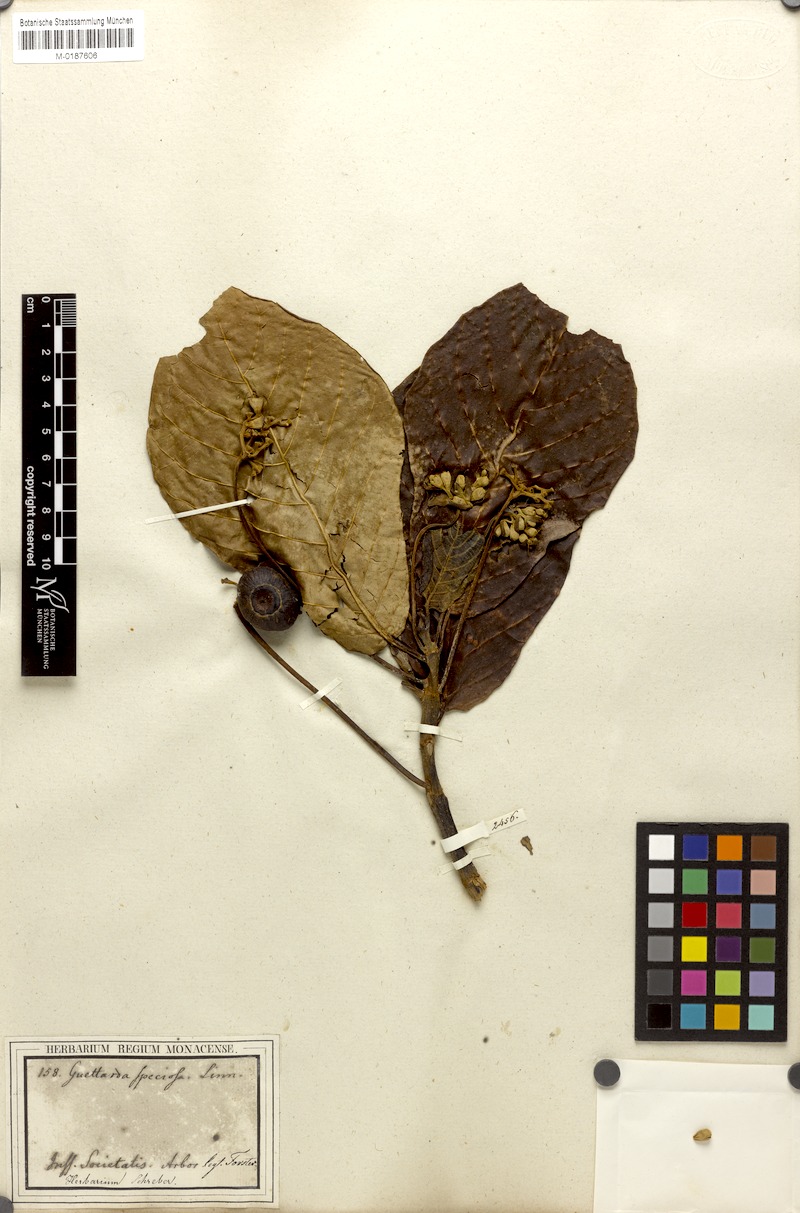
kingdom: Plantae
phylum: Tracheophyta
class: Magnoliopsida
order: Gentianales
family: Rubiaceae
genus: Guettarda
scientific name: Guettarda speciosa
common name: Sea randa
